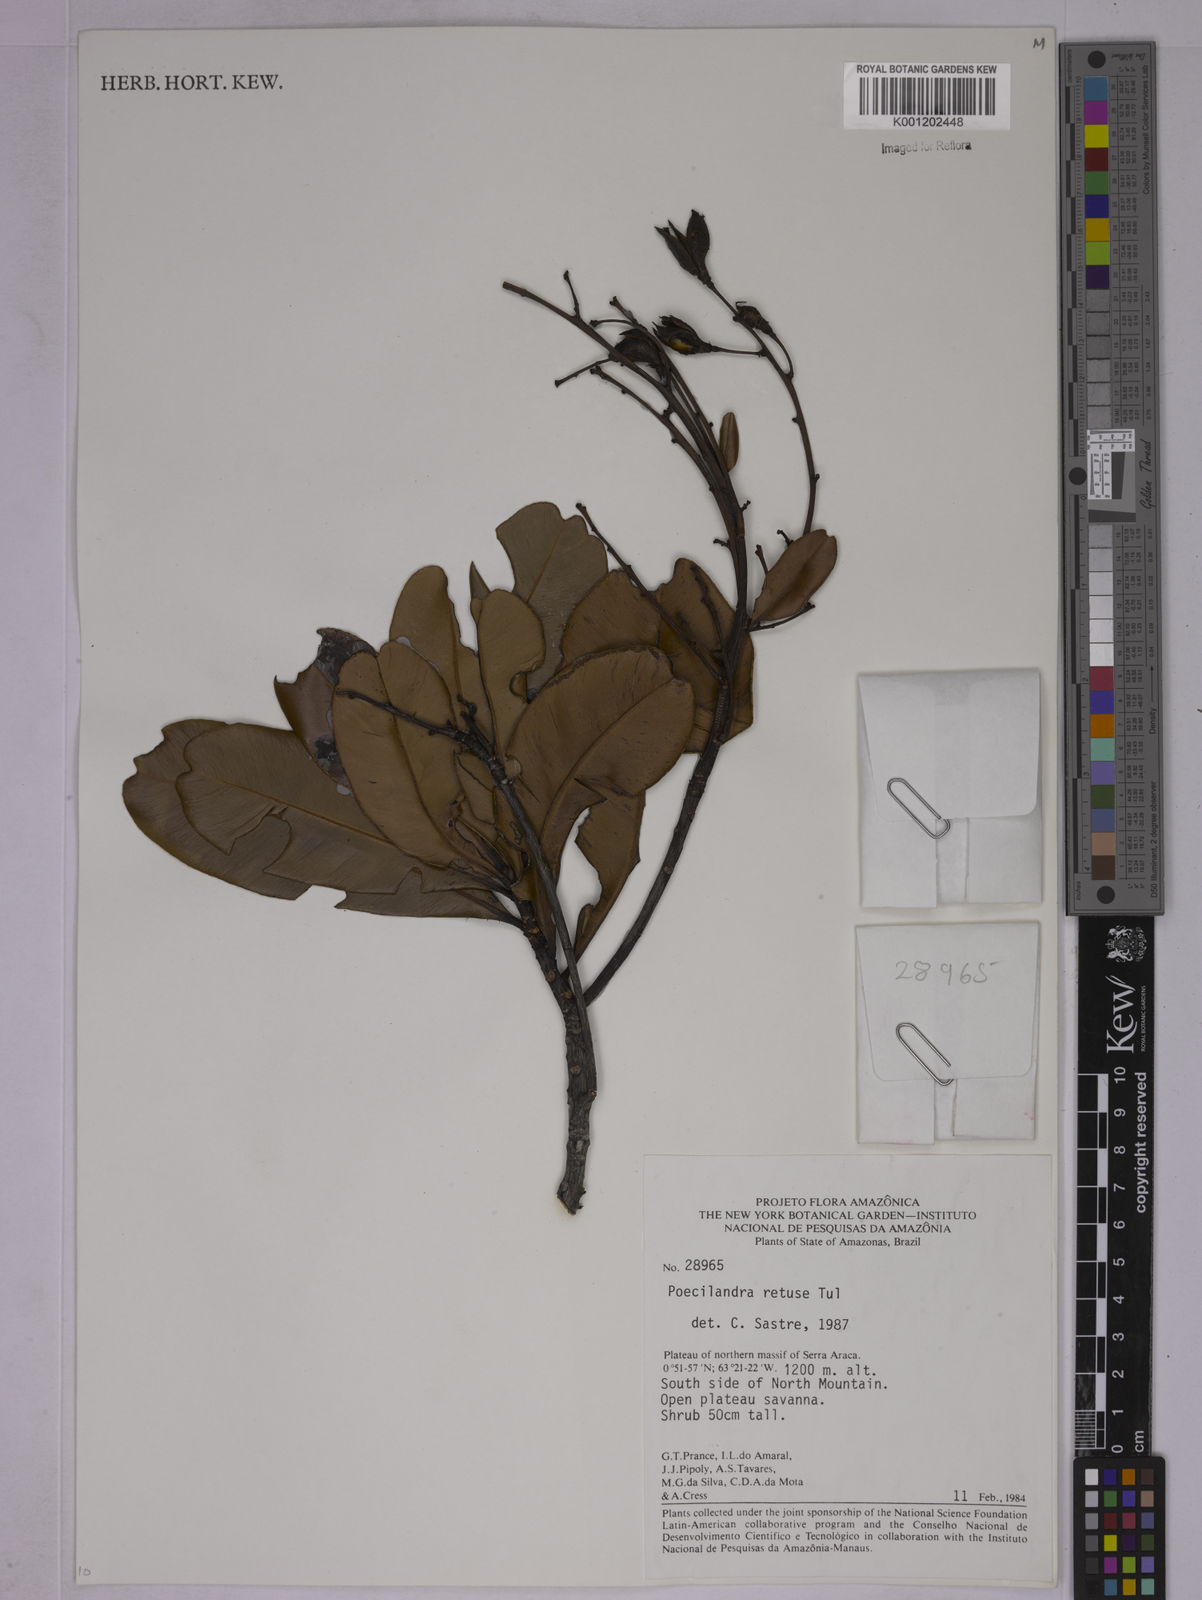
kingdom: Plantae
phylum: Tracheophyta
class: Magnoliopsida
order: Malpighiales
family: Ochnaceae
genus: Poecilandra
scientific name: Poecilandra retusa
